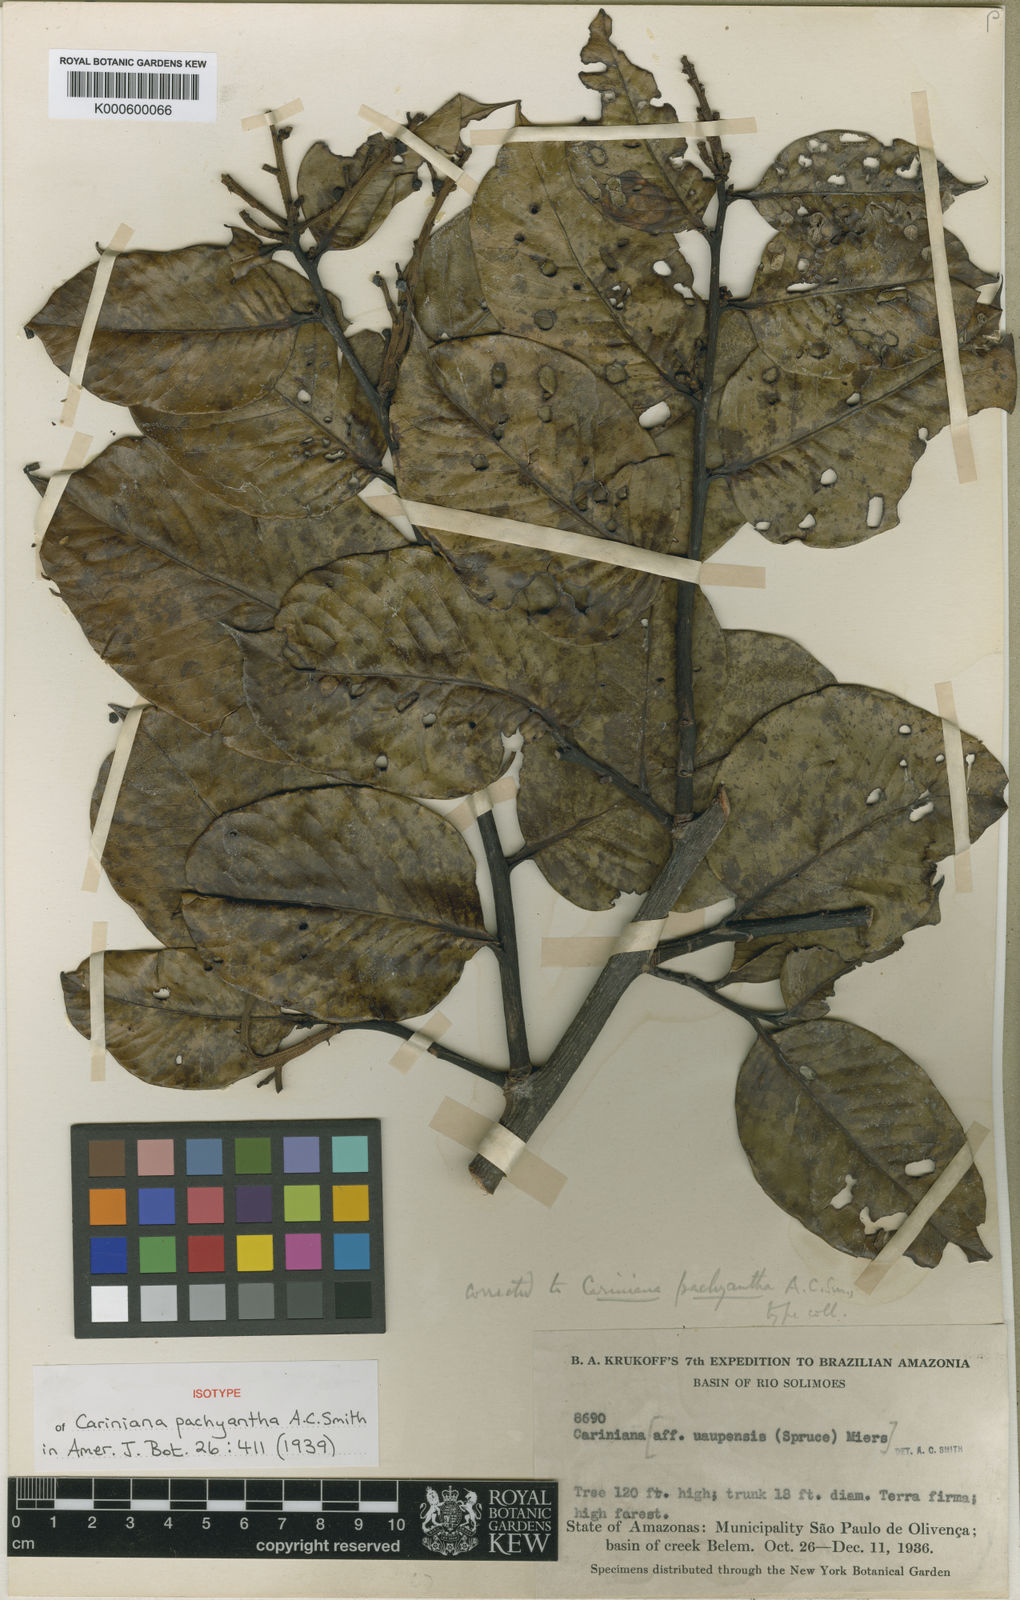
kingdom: Plantae
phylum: Tracheophyta
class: Magnoliopsida
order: Ericales
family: Lecythidaceae
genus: Allantoma
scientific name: Allantoma pachyantha
